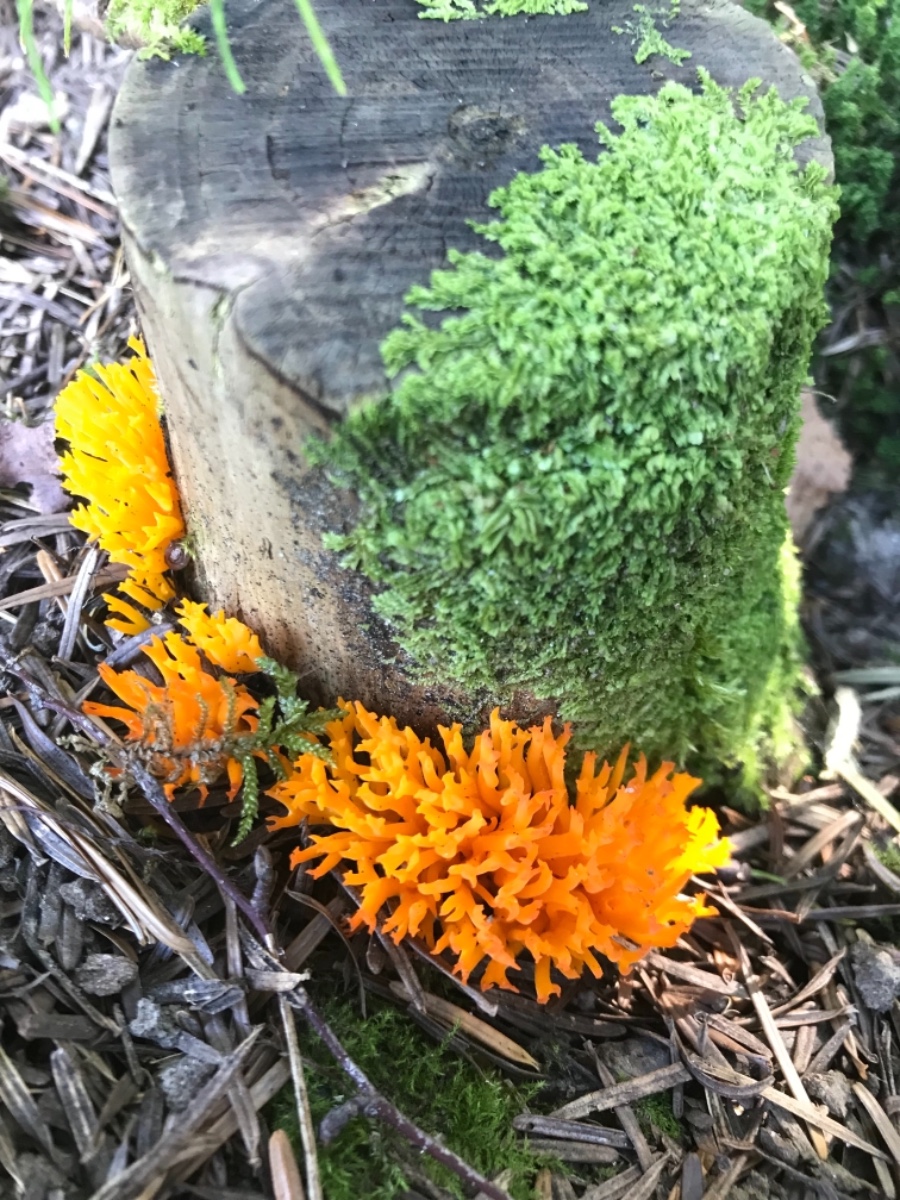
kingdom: Fungi
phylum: Basidiomycota
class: Dacrymycetes
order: Dacrymycetales
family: Dacrymycetaceae
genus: Calocera
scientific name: Calocera viscosa
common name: almindelig guldgaffel
